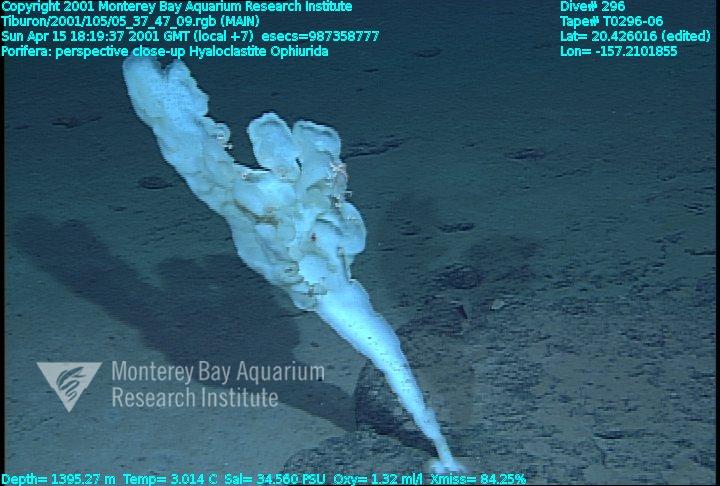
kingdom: Animalia
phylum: Porifera
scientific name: Porifera
